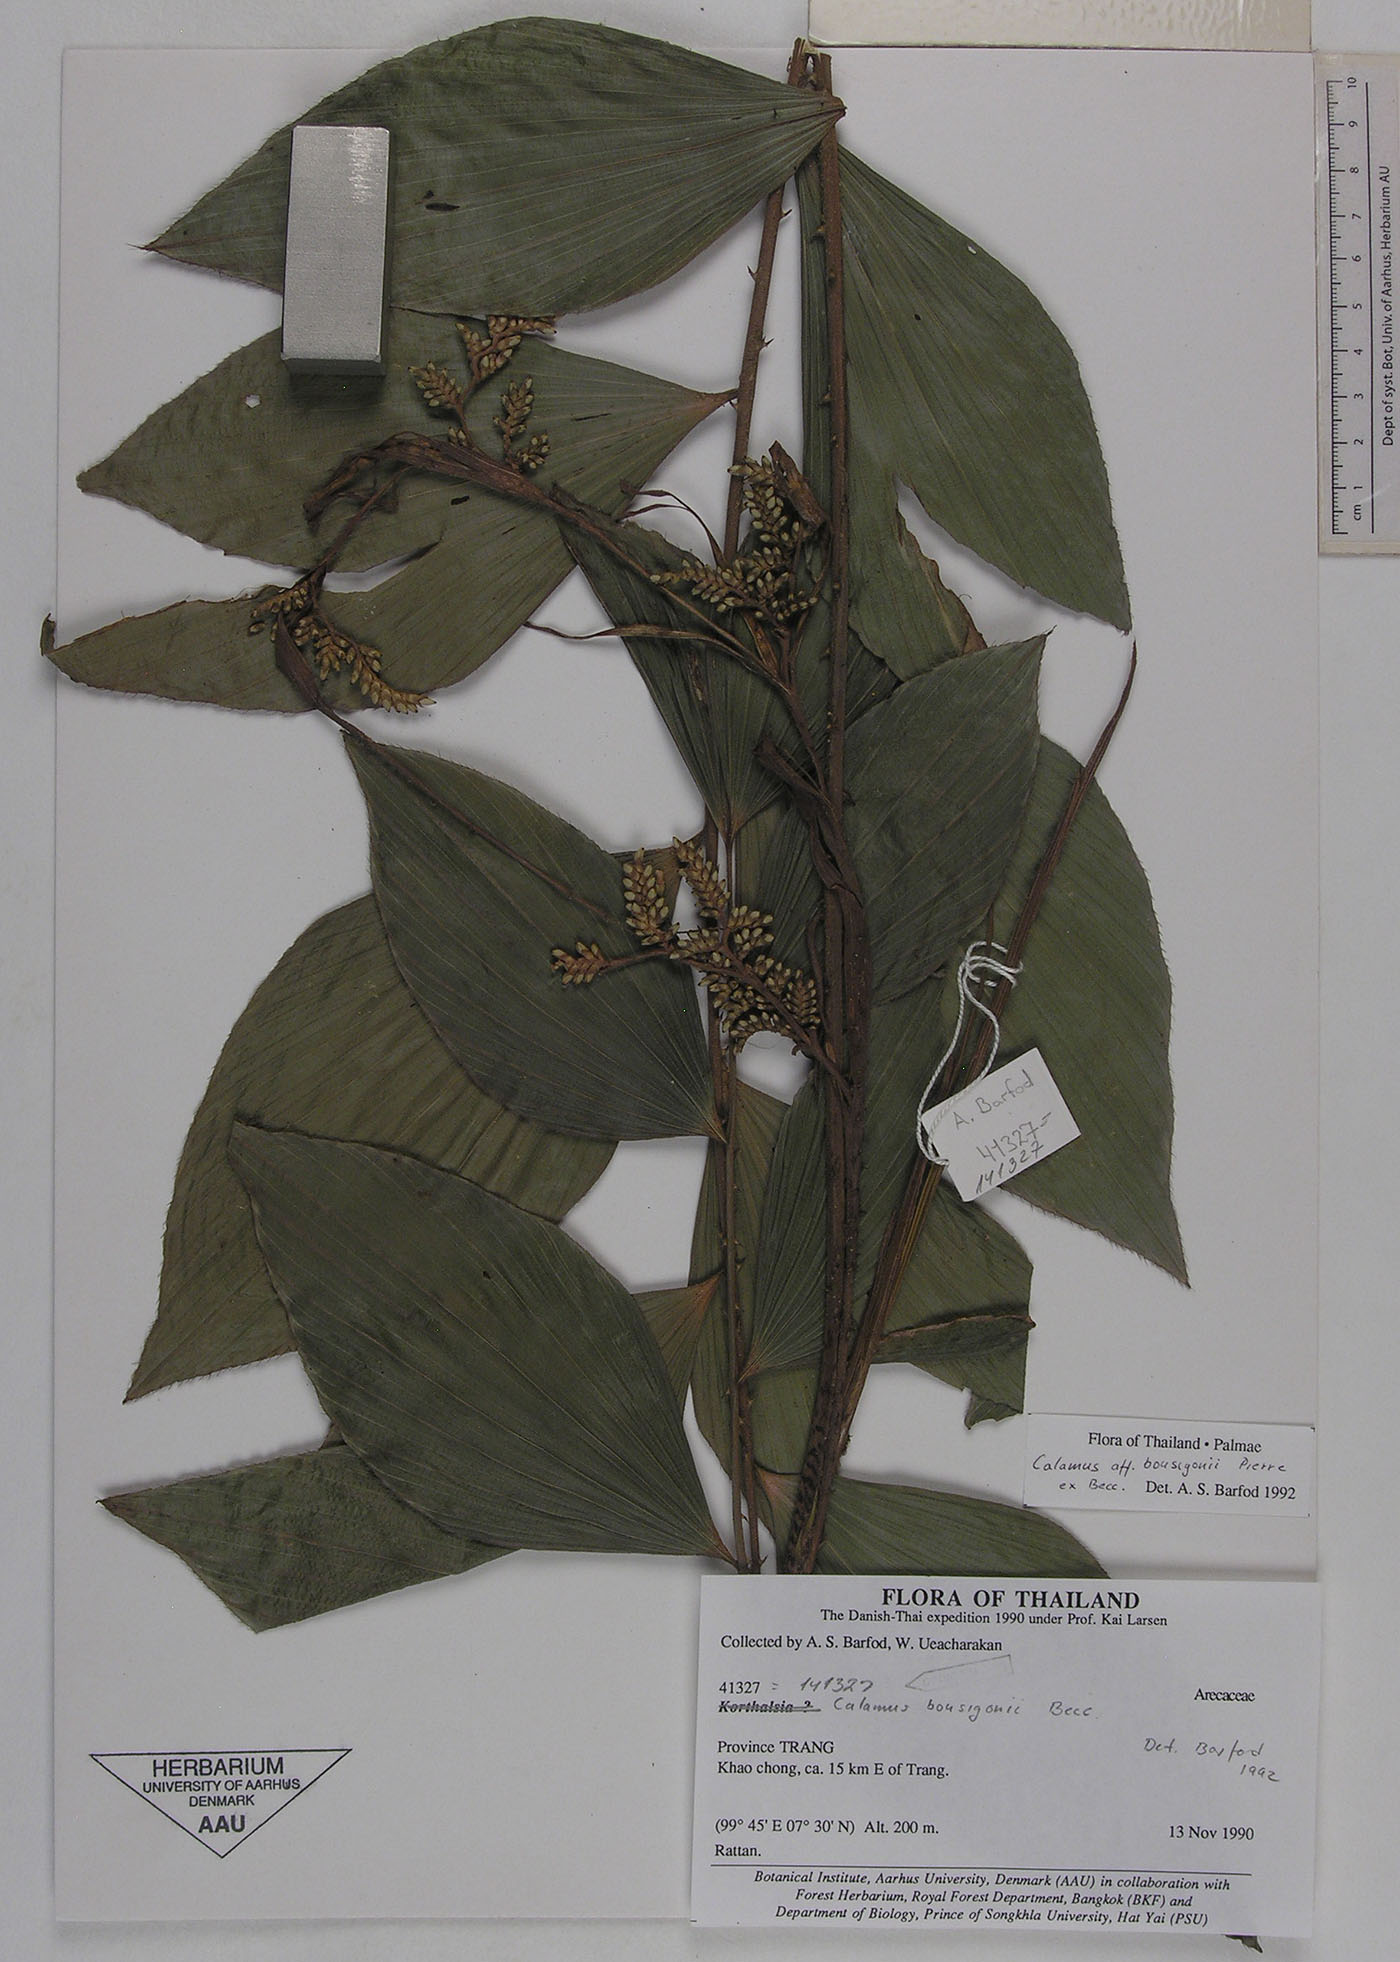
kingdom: Plantae
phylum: Tracheophyta
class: Liliopsida
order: Arecales
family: Arecaceae
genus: Calamus
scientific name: Calamus bousigonii
